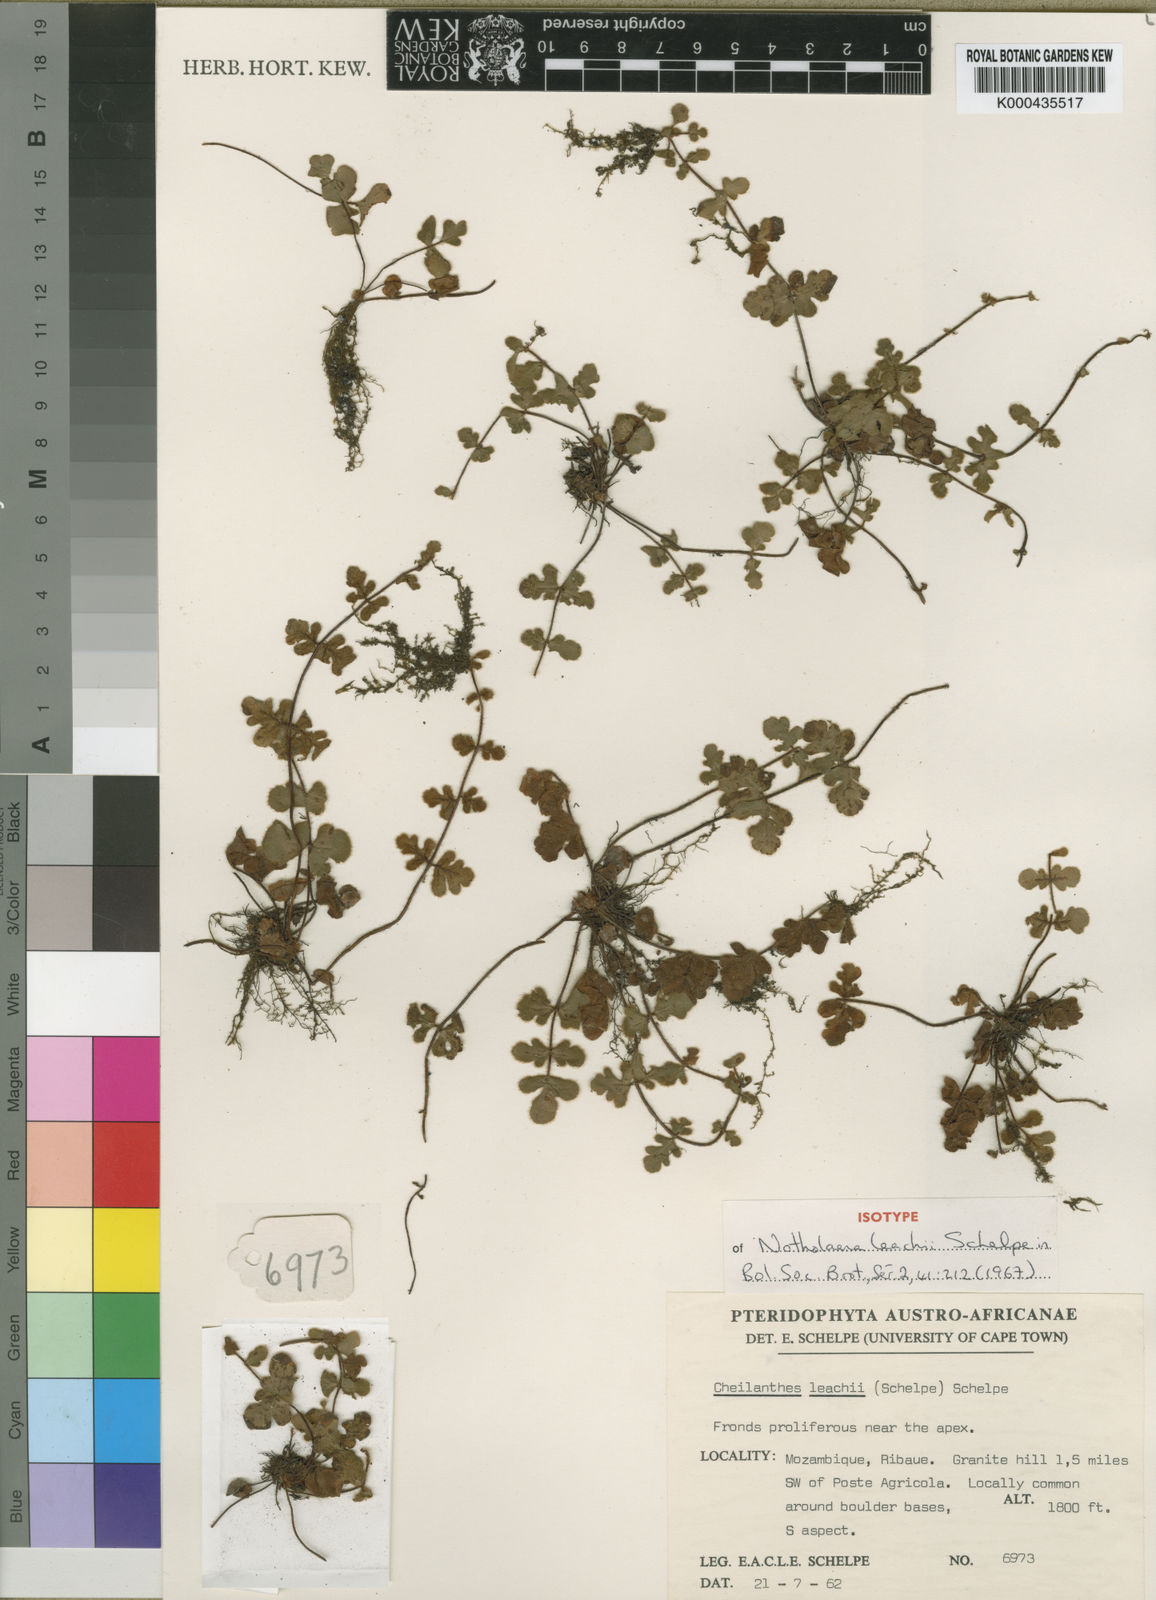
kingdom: Plantae
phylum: Tracheophyta
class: Polypodiopsida
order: Polypodiales
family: Pteridaceae
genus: Cheilanthes
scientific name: Cheilanthes leachii
